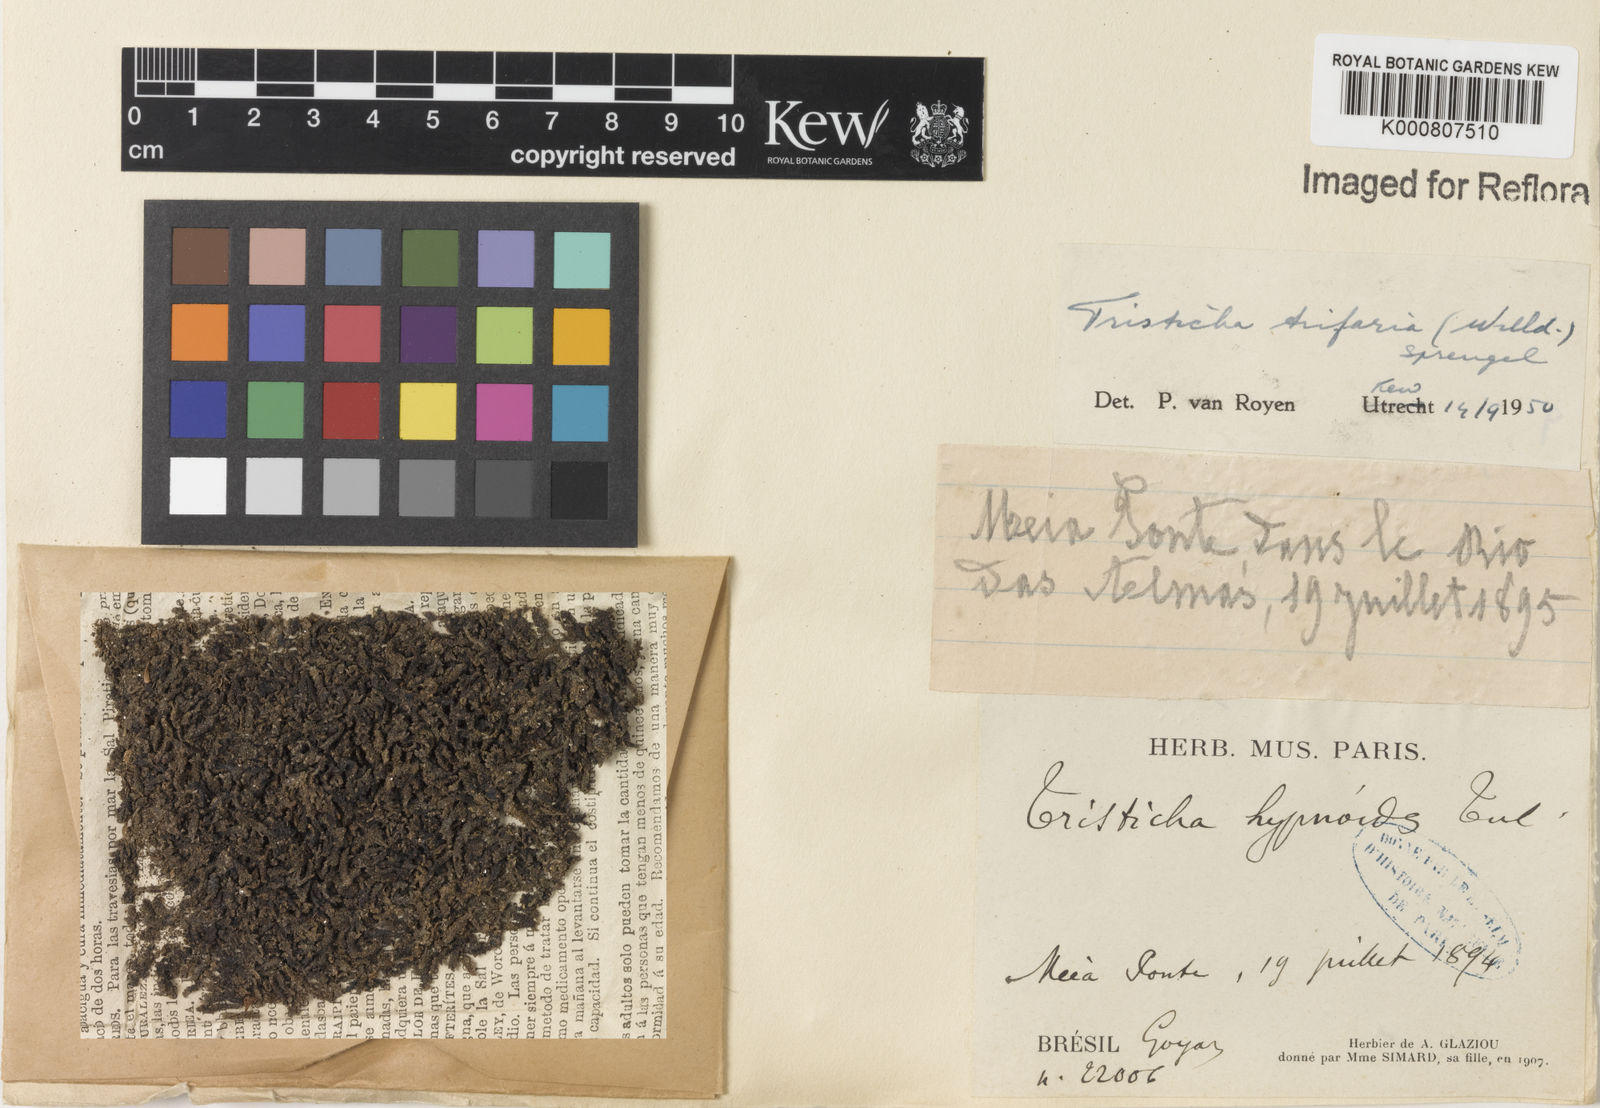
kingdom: Plantae
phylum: Tracheophyta
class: Magnoliopsida
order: Malpighiales
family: Podostemaceae
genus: Tristicha
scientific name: Tristicha trifaria
